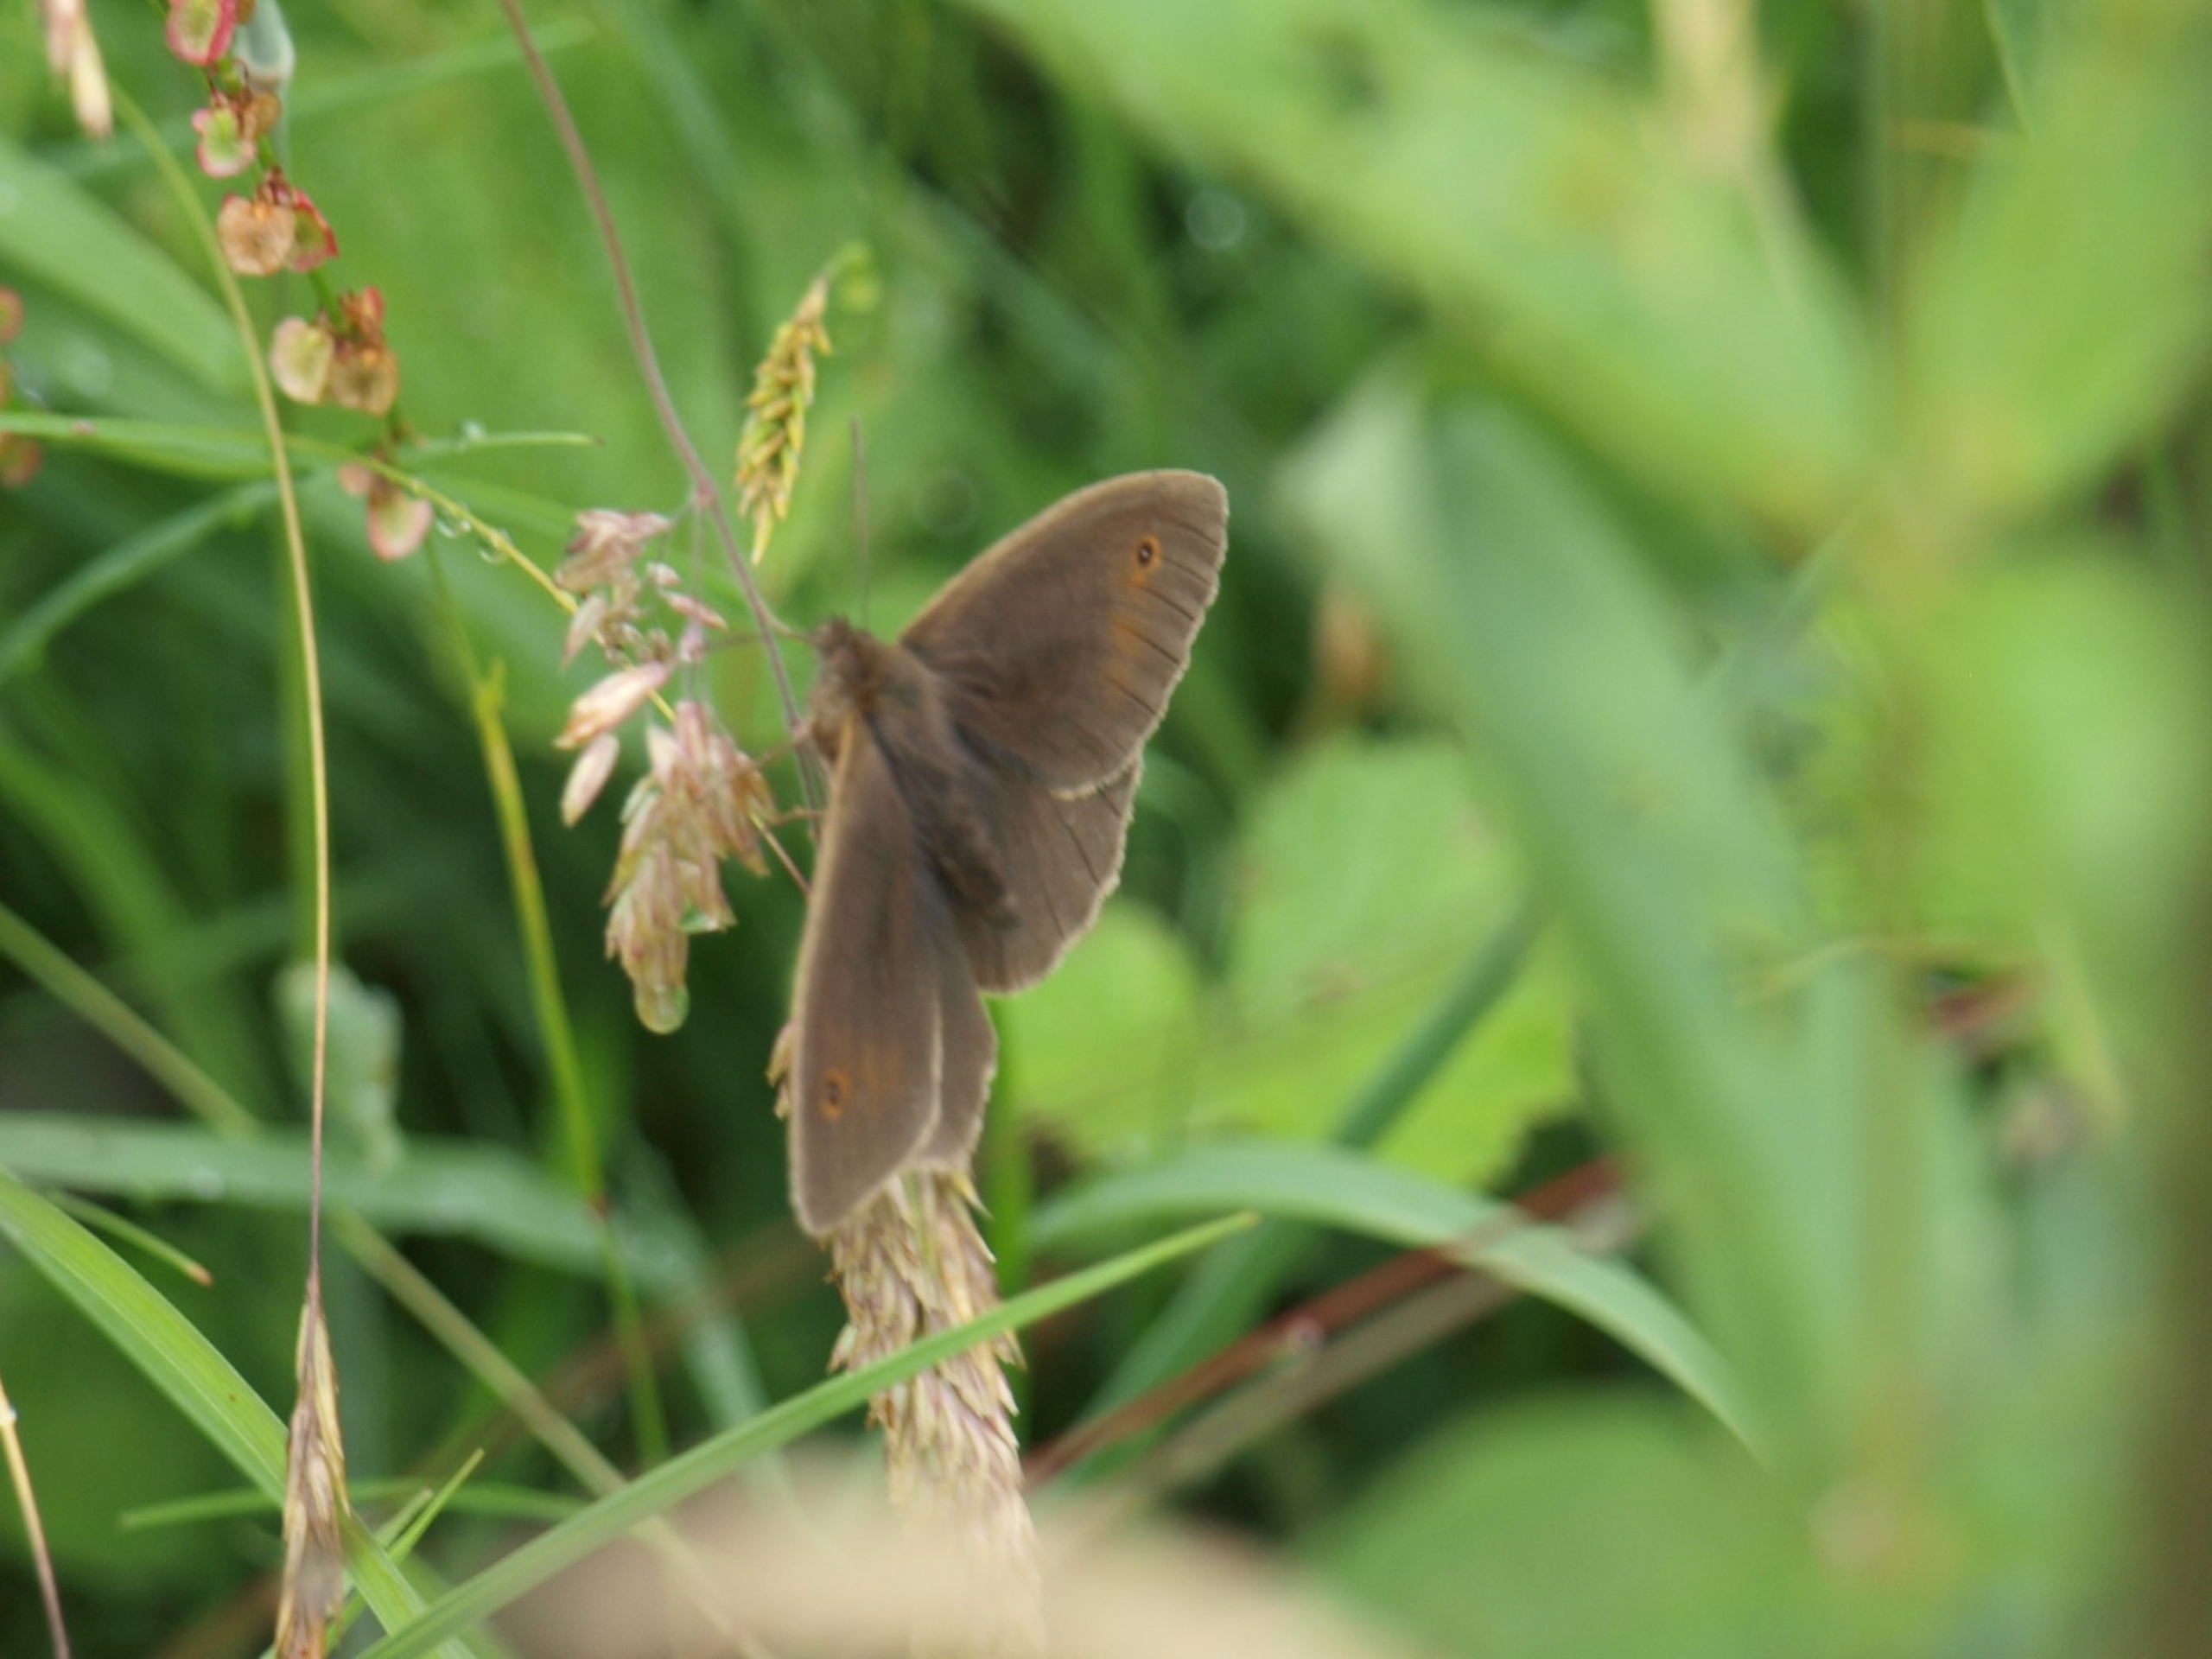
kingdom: Animalia
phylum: Arthropoda
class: Insecta
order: Lepidoptera
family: Nymphalidae
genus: Maniola
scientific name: Maniola jurtina
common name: Græsrandøje
